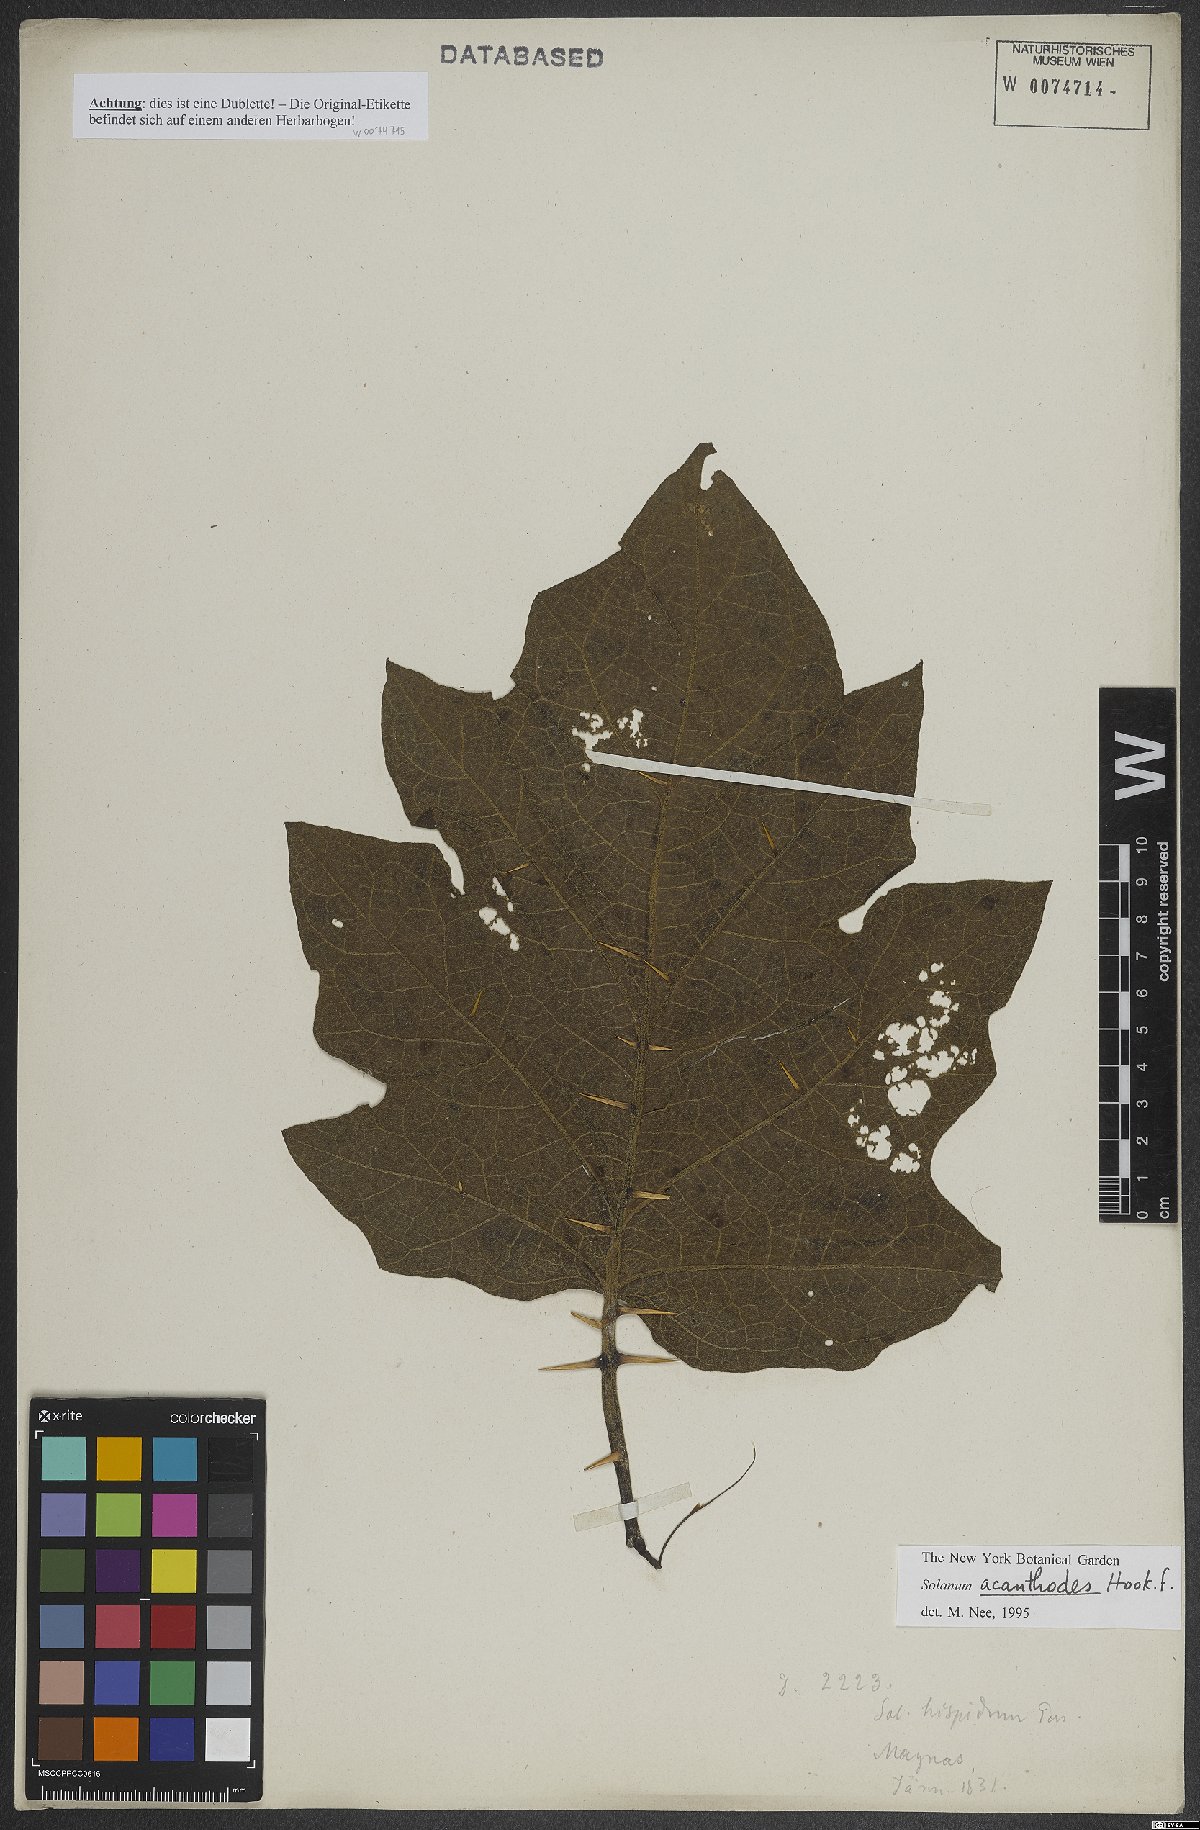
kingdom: Plantae
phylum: Tracheophyta
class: Magnoliopsida
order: Solanales
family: Solanaceae
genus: Solanum
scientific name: Solanum vanheurckii
